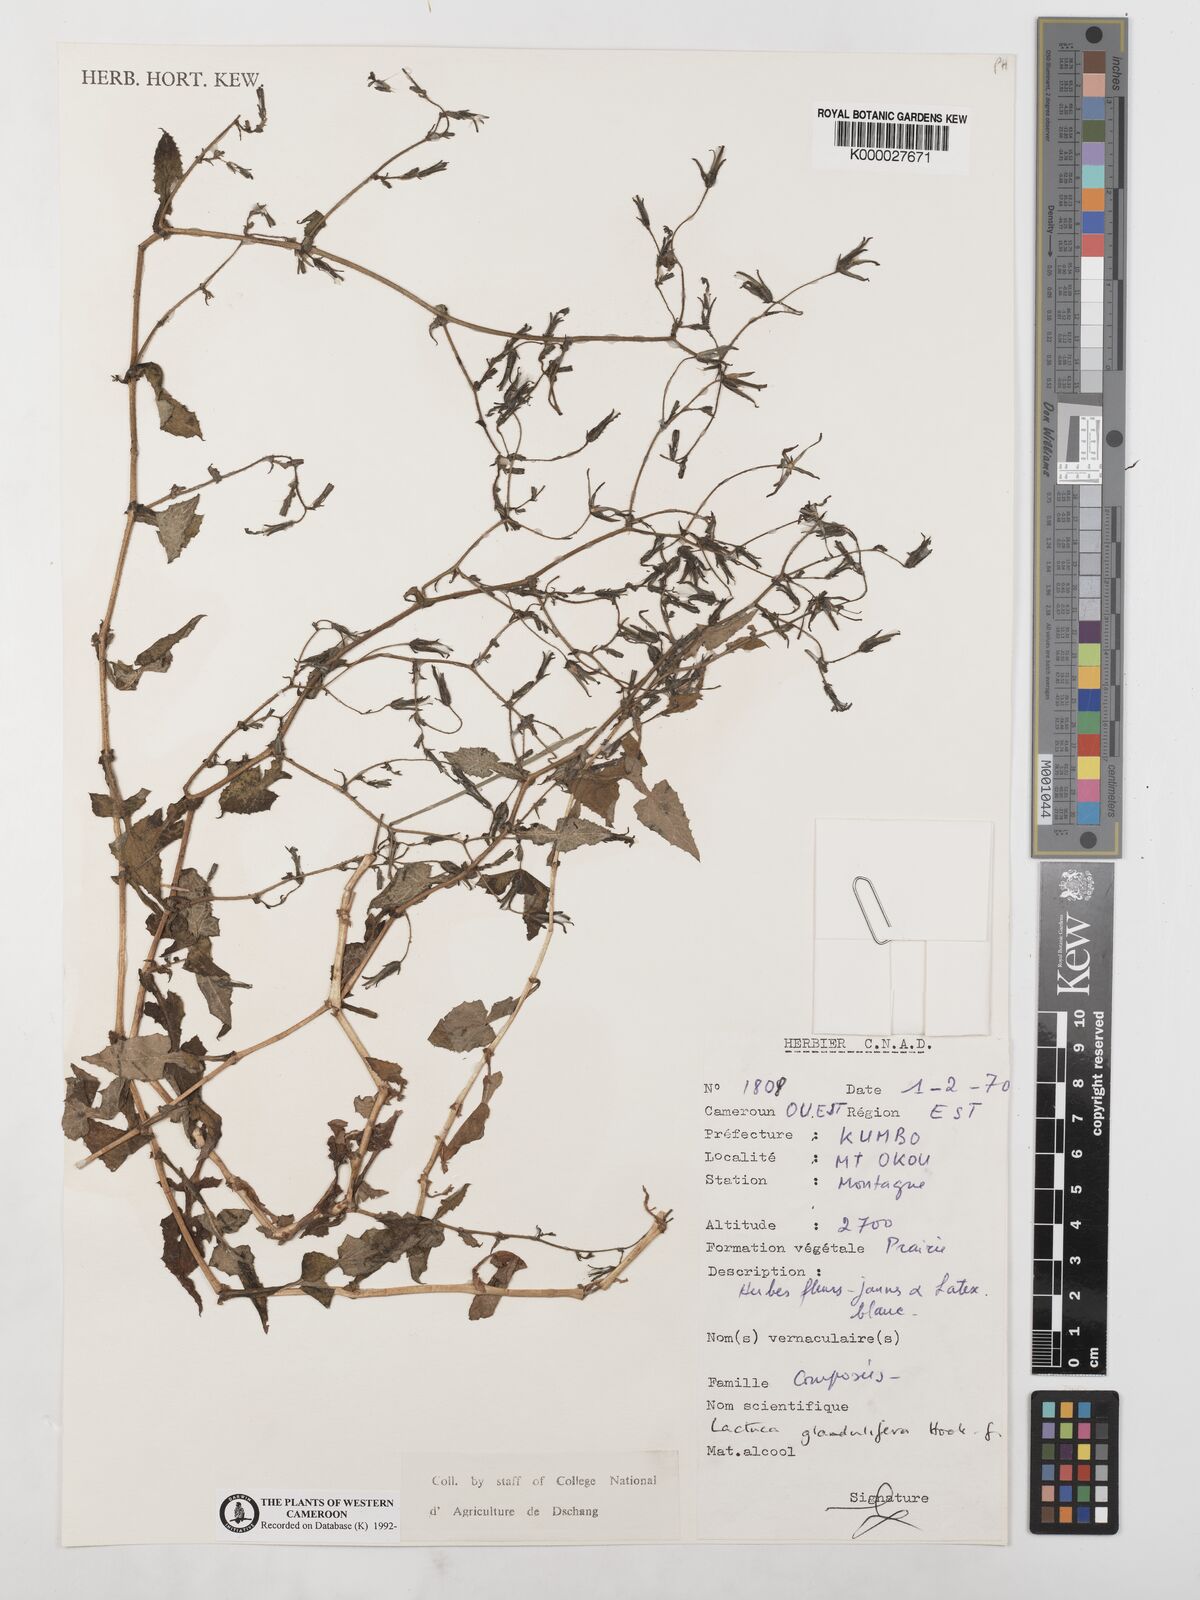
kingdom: Plantae
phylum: Tracheophyta
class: Magnoliopsida
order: Asterales
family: Asteraceae
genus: Lactuca
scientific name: Lactuca glandulifera
